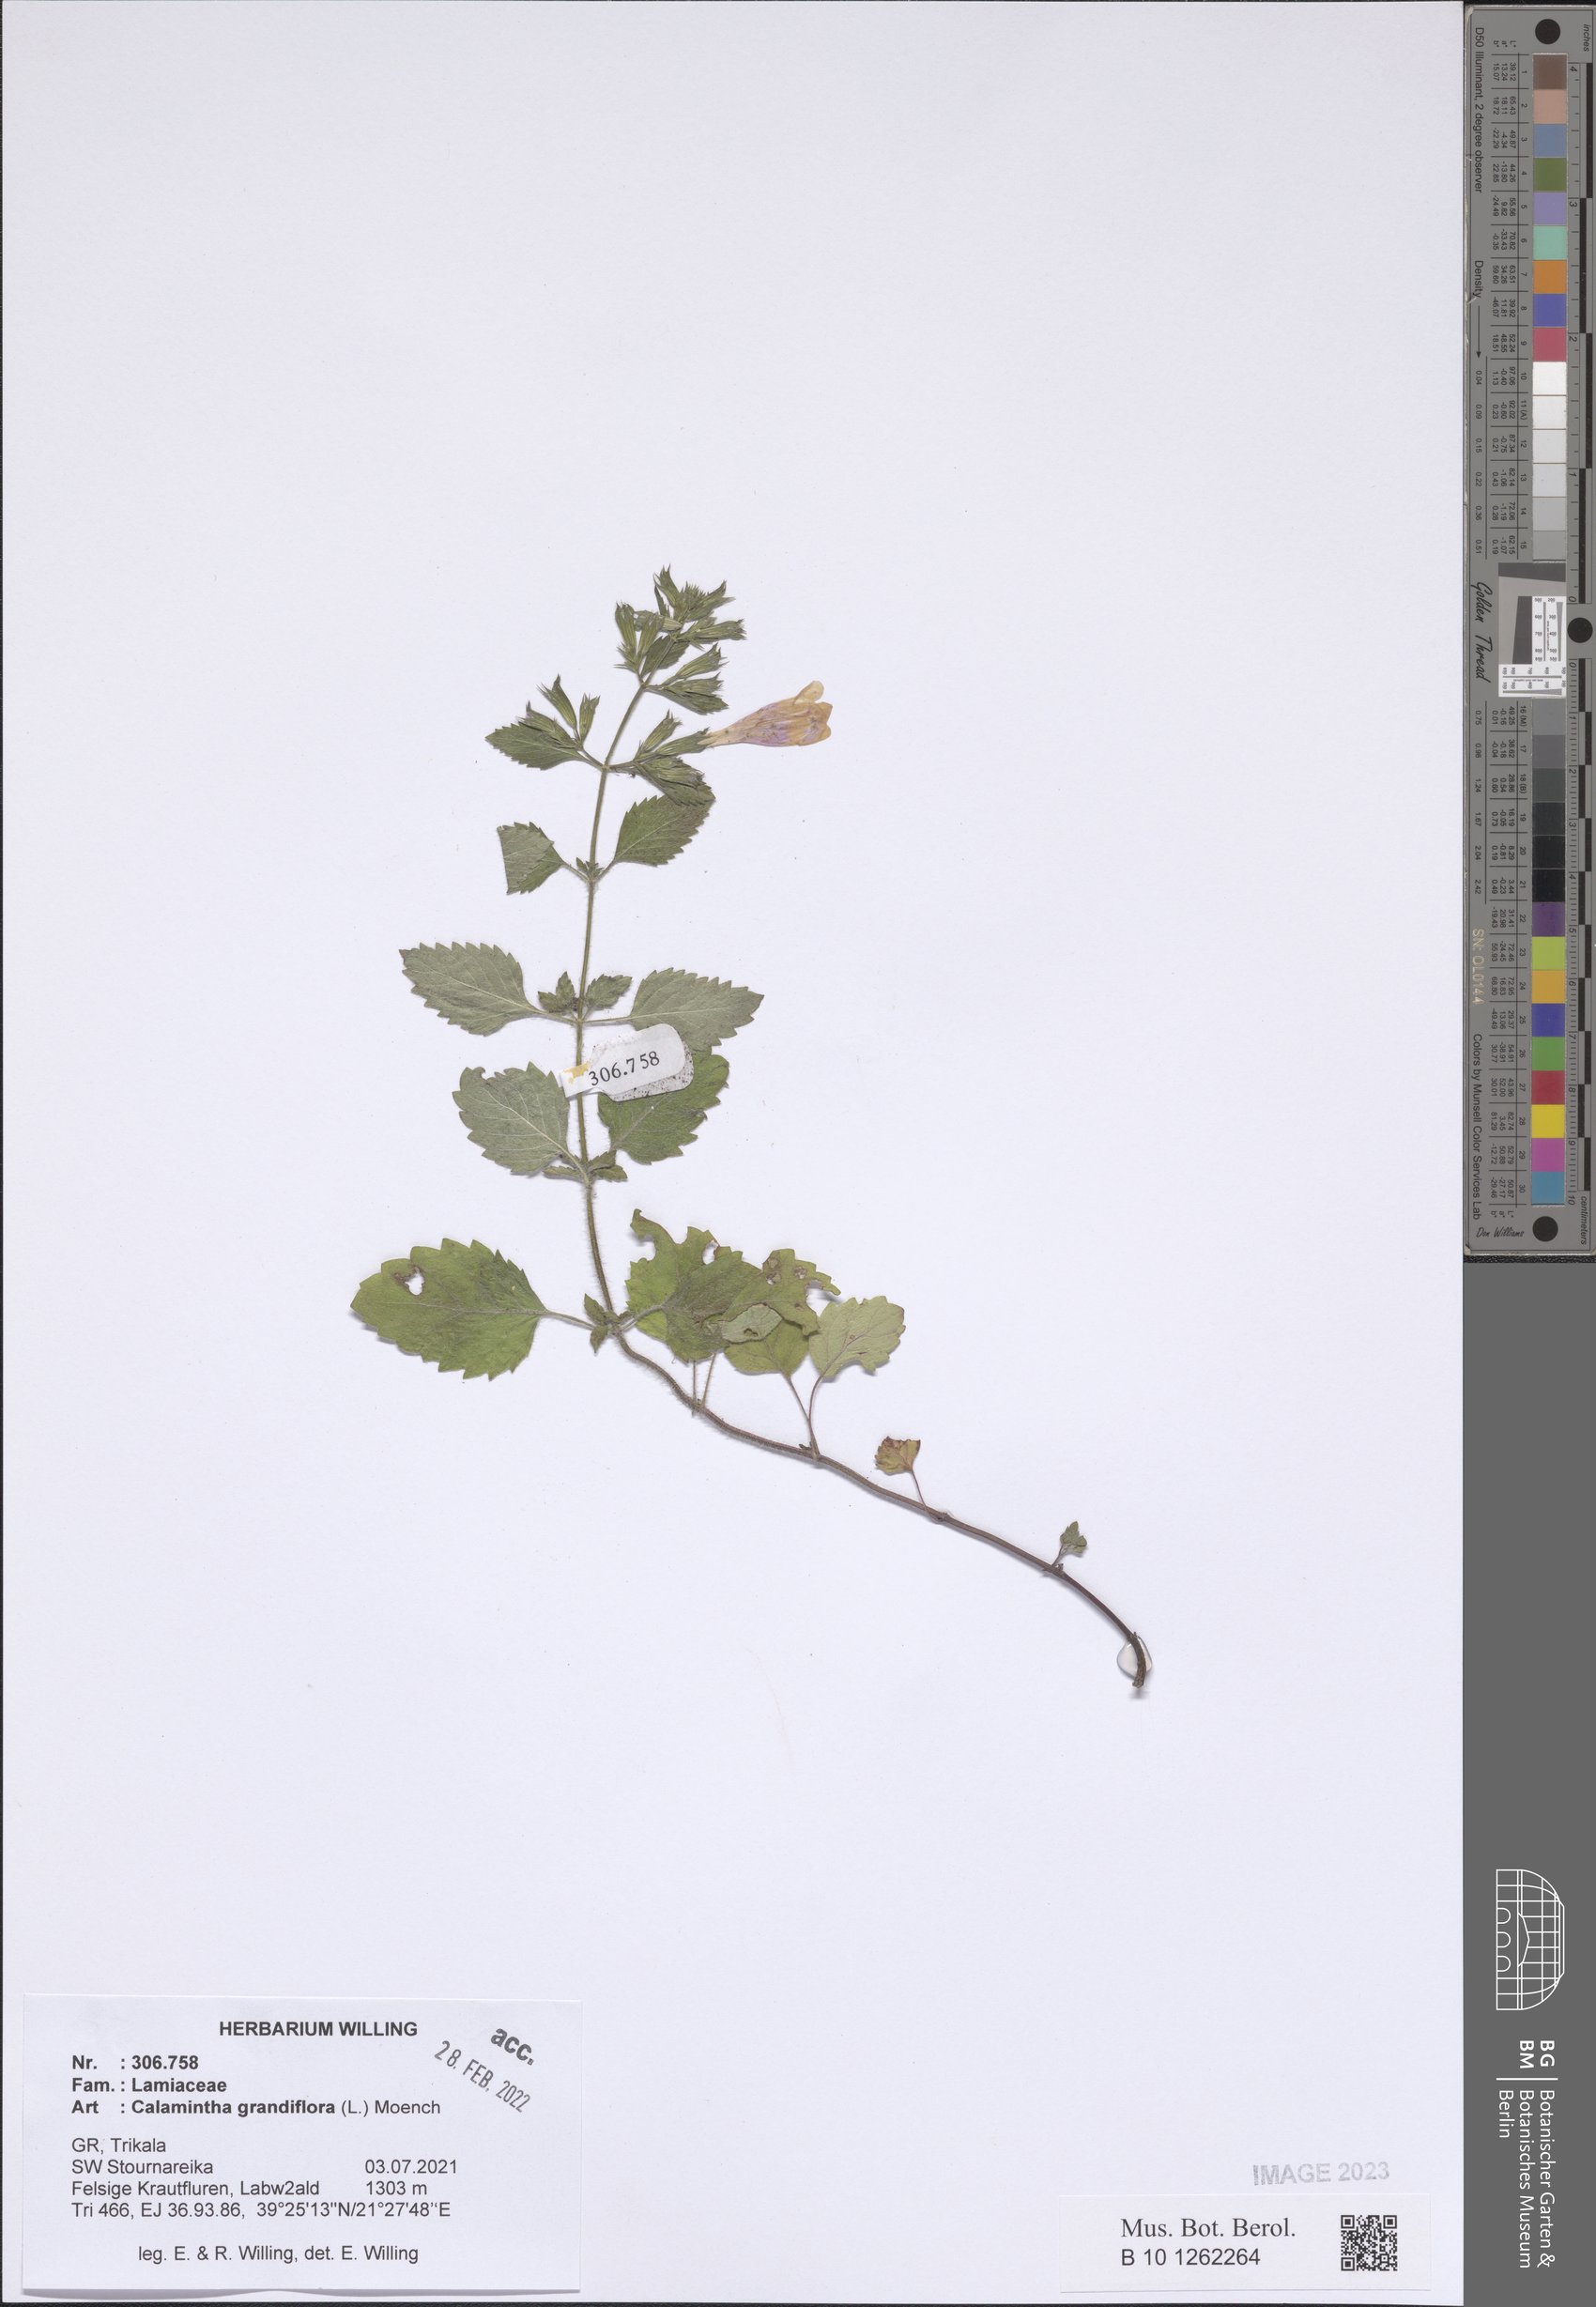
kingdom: Plantae
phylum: Tracheophyta
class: Magnoliopsida
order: Lamiales
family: Lamiaceae
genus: Clinopodium
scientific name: Clinopodium grandiflorum
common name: Greater calamint
